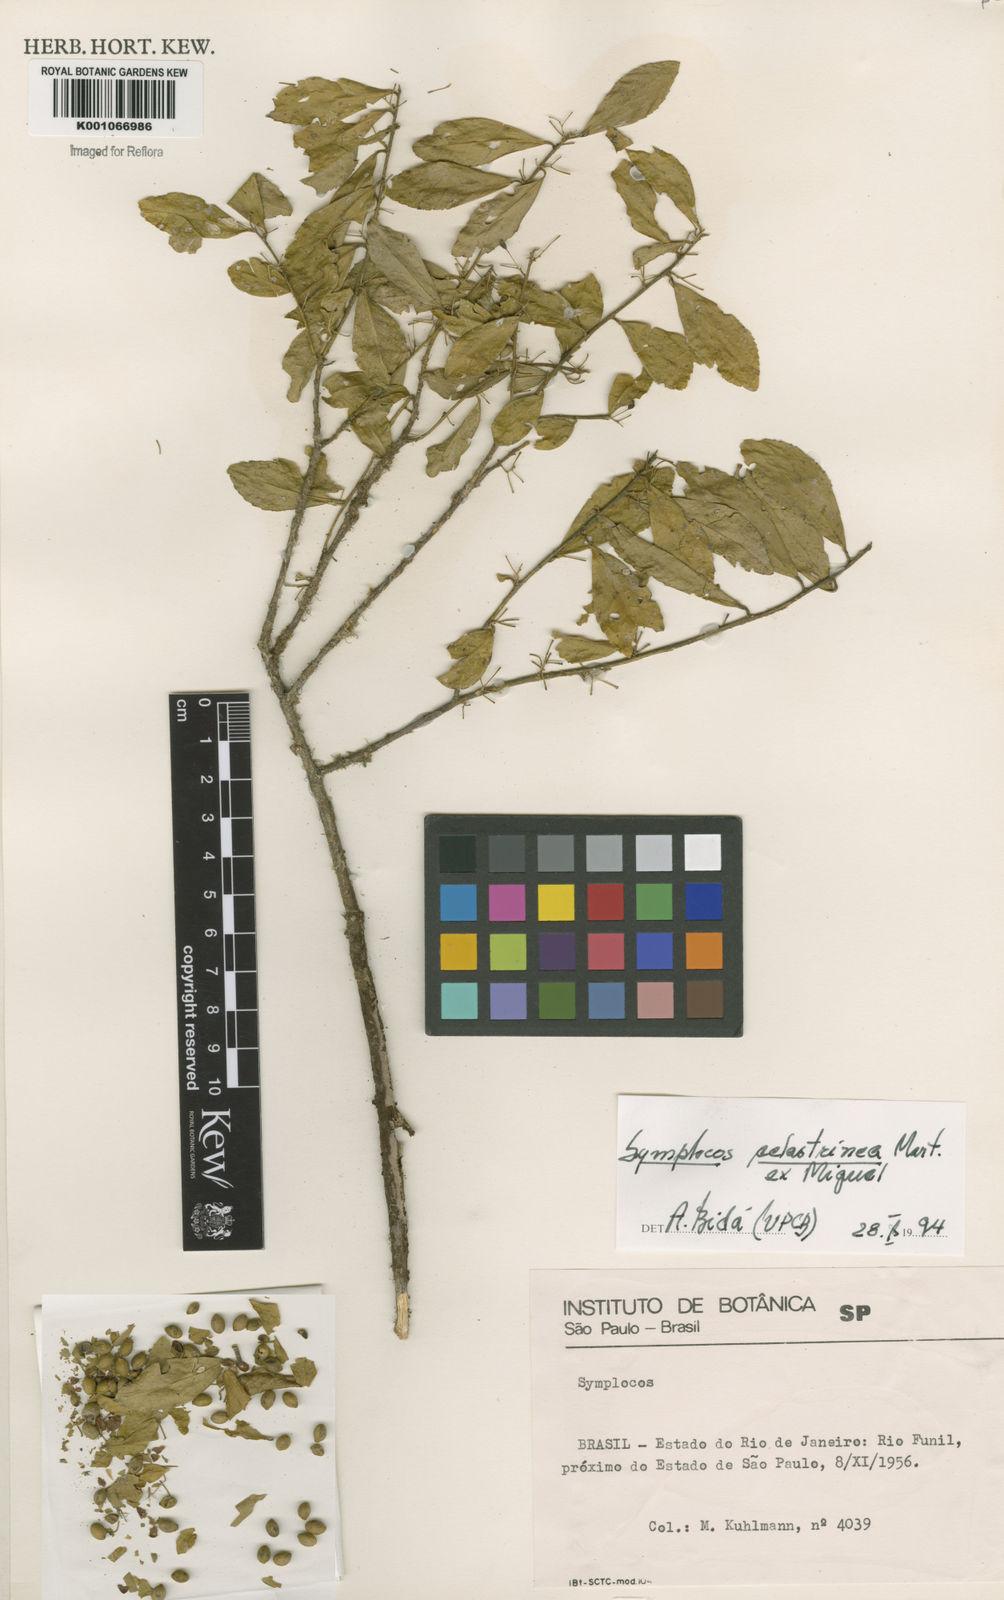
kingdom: Plantae
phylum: Tracheophyta
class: Magnoliopsida
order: Ericales
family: Symplocaceae
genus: Symplocos
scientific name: Symplocos
